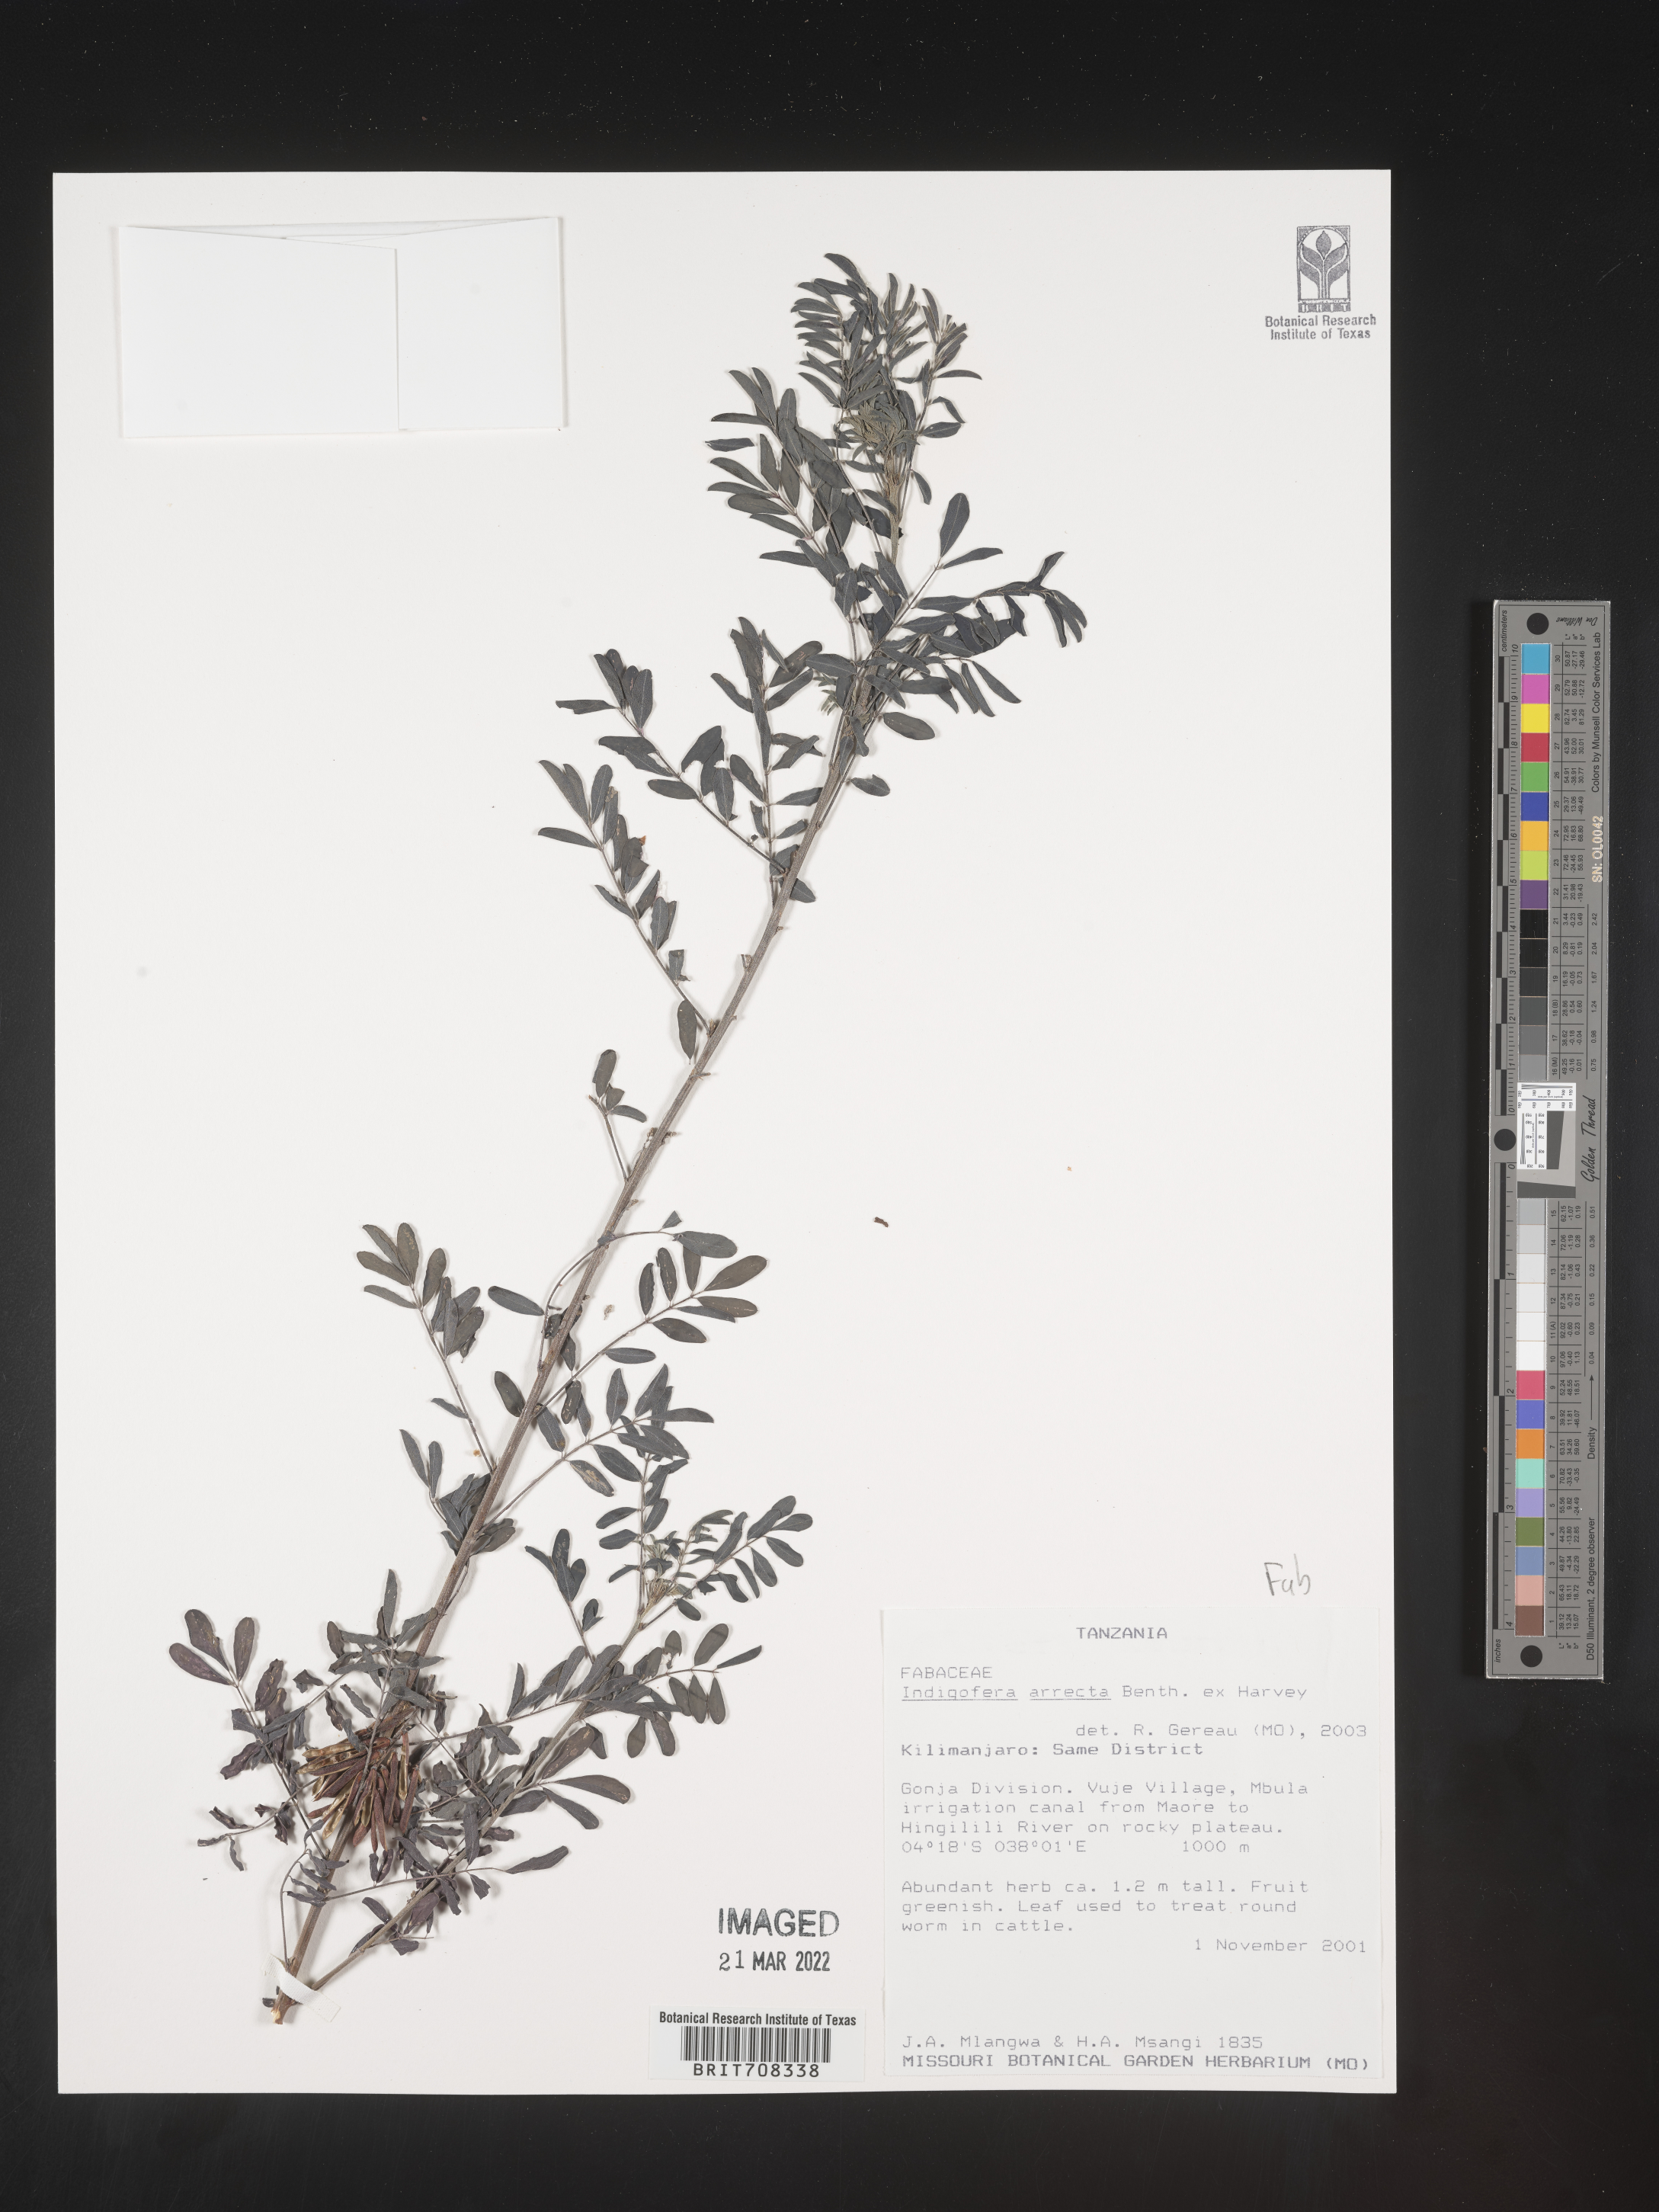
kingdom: Plantae
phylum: Tracheophyta
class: Magnoliopsida
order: Fabales
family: Fabaceae
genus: Indigofera
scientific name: Indigofera
